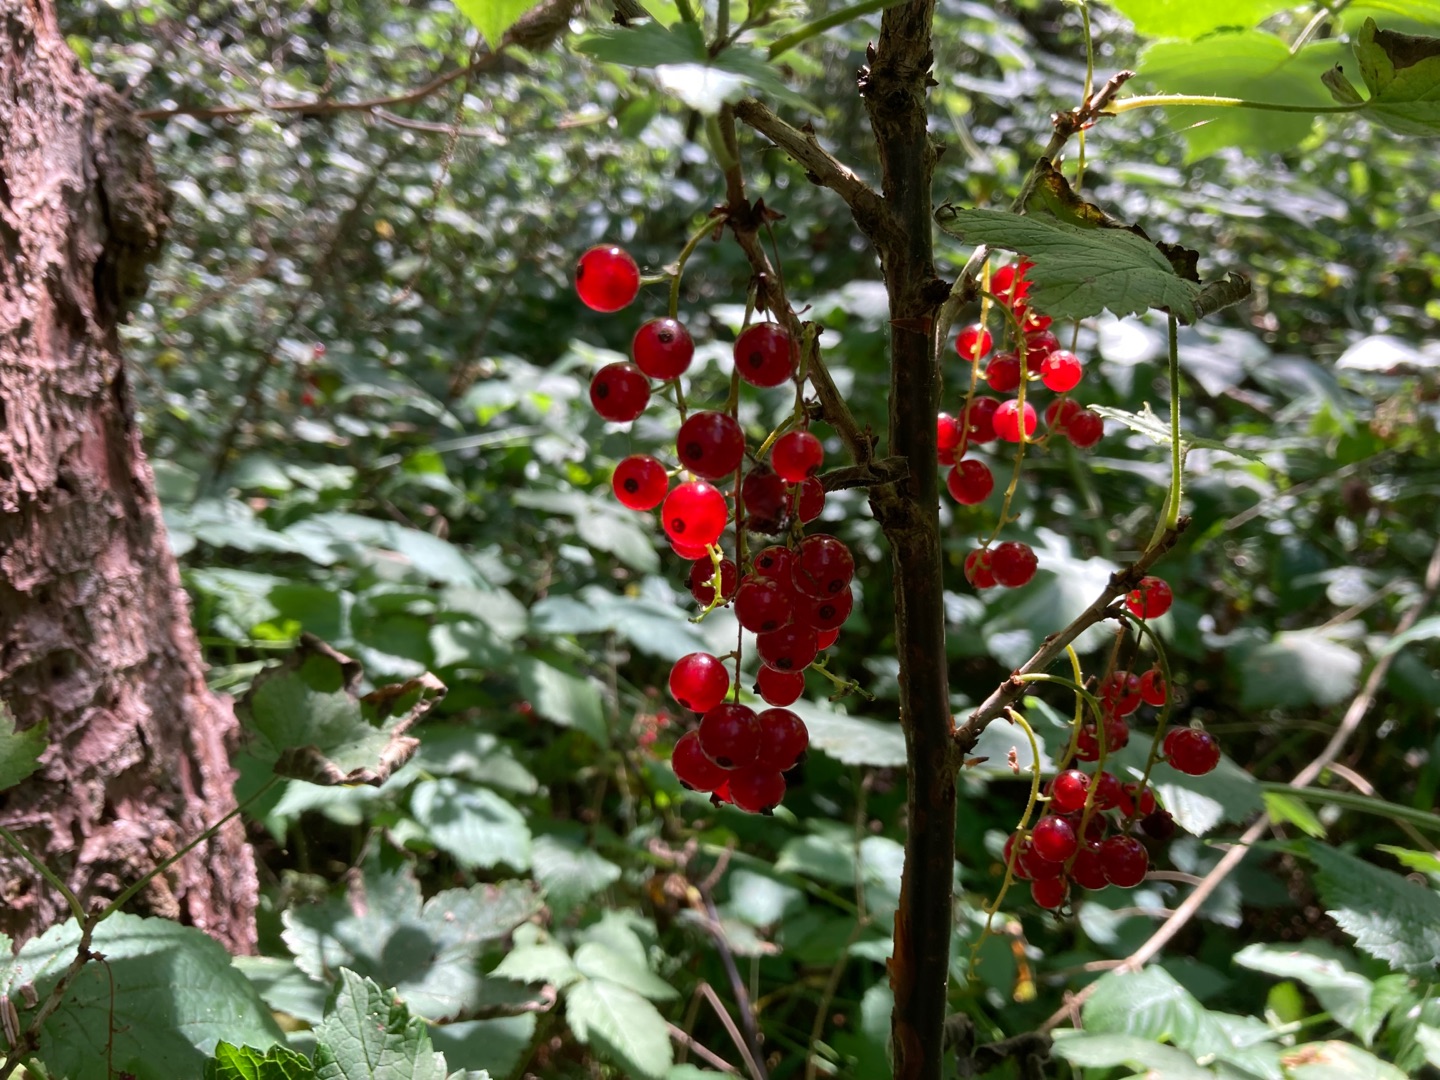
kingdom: Plantae
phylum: Tracheophyta
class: Magnoliopsida
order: Saxifragales
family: Grossulariaceae
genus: Ribes
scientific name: Ribes spicatum
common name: Vild ribs
